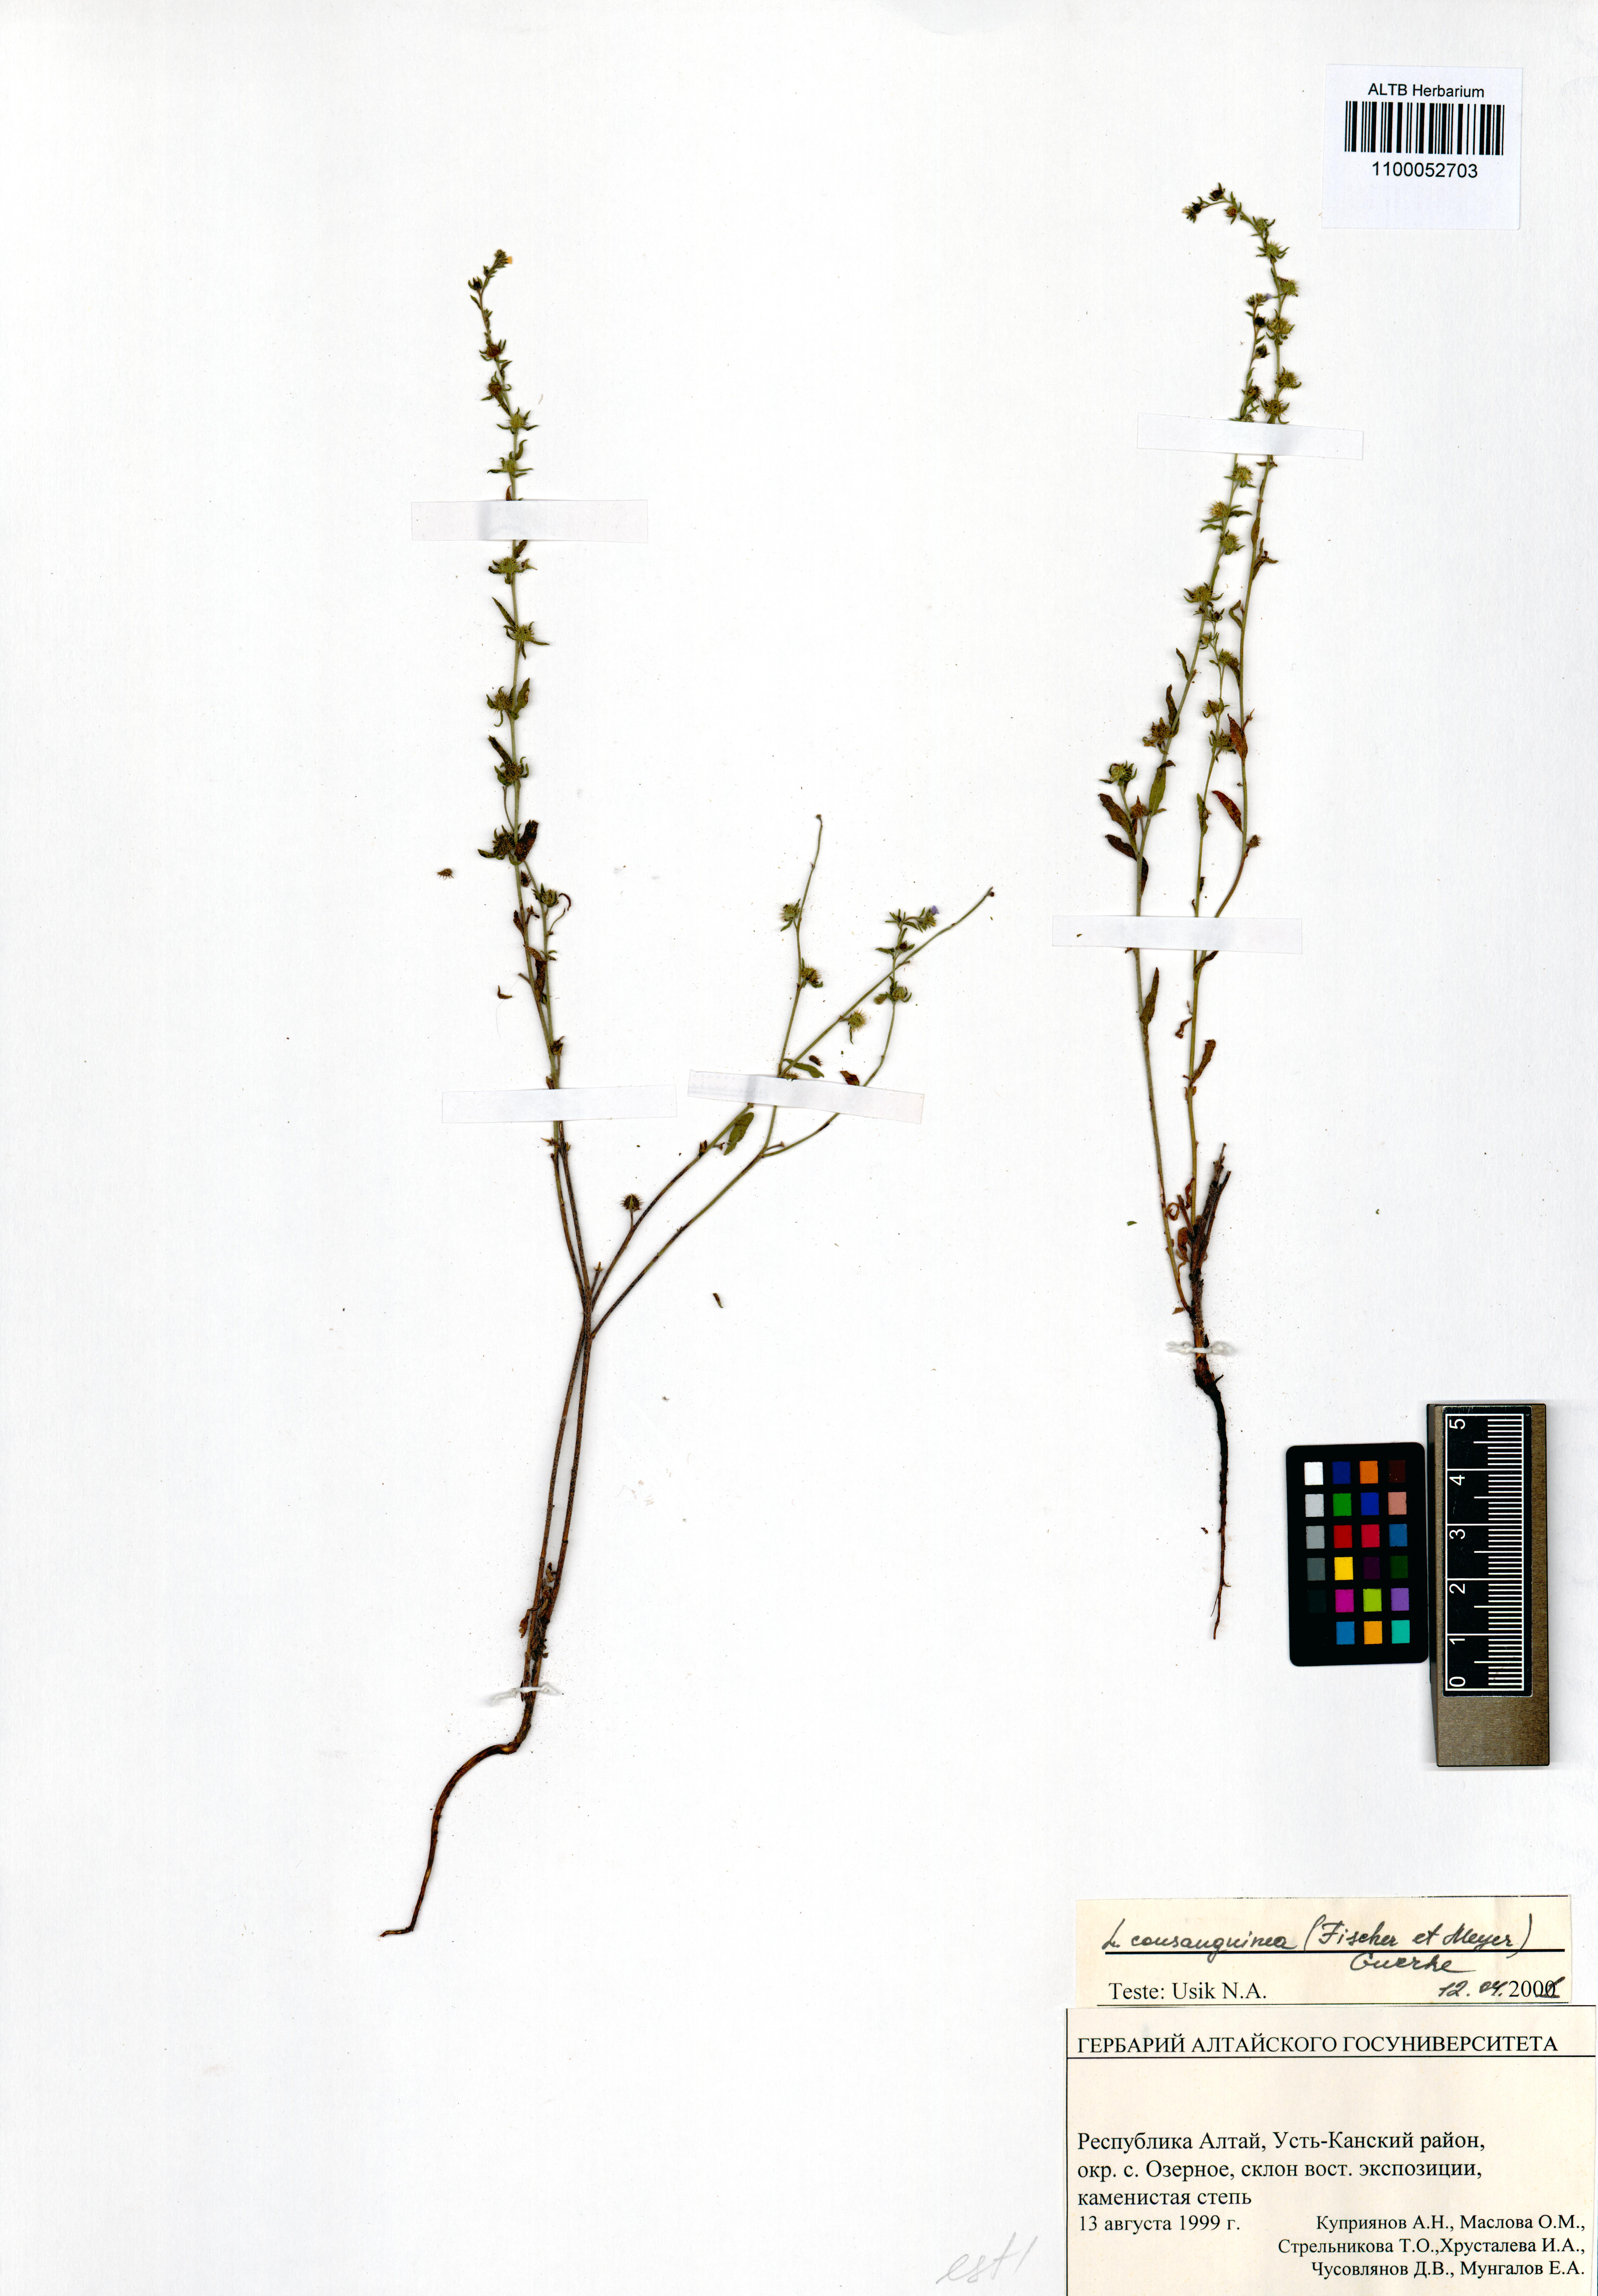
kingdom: Plantae
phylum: Tracheophyta
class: Magnoliopsida
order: Boraginales
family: Boraginaceae
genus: Lappula
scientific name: Lappula squarrosa
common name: European stickseed
